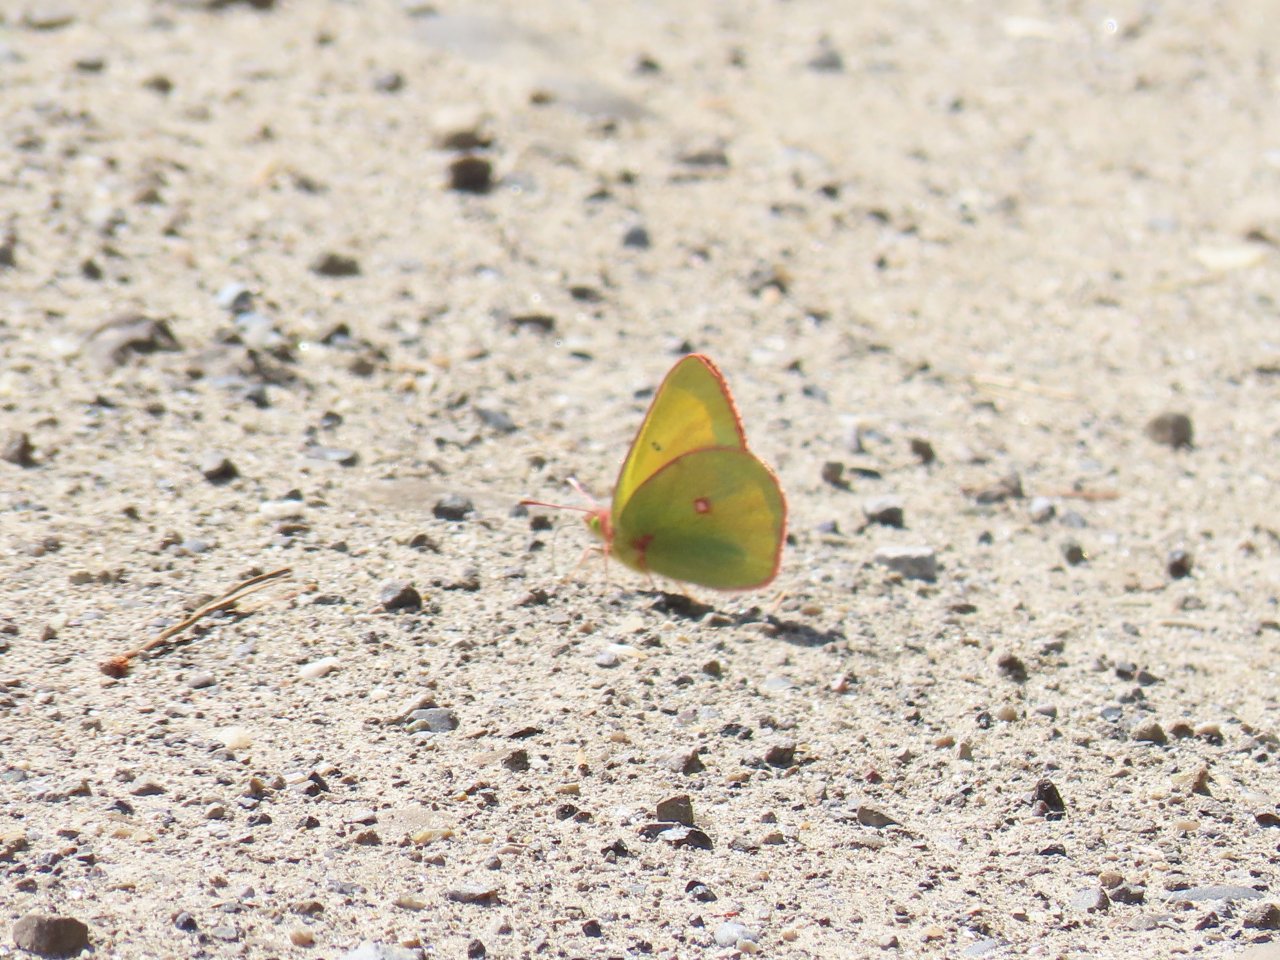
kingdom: Animalia
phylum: Arthropoda
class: Insecta
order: Lepidoptera
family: Pieridae
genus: Colias
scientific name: Colias interior
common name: Pink-edged Sulphur
